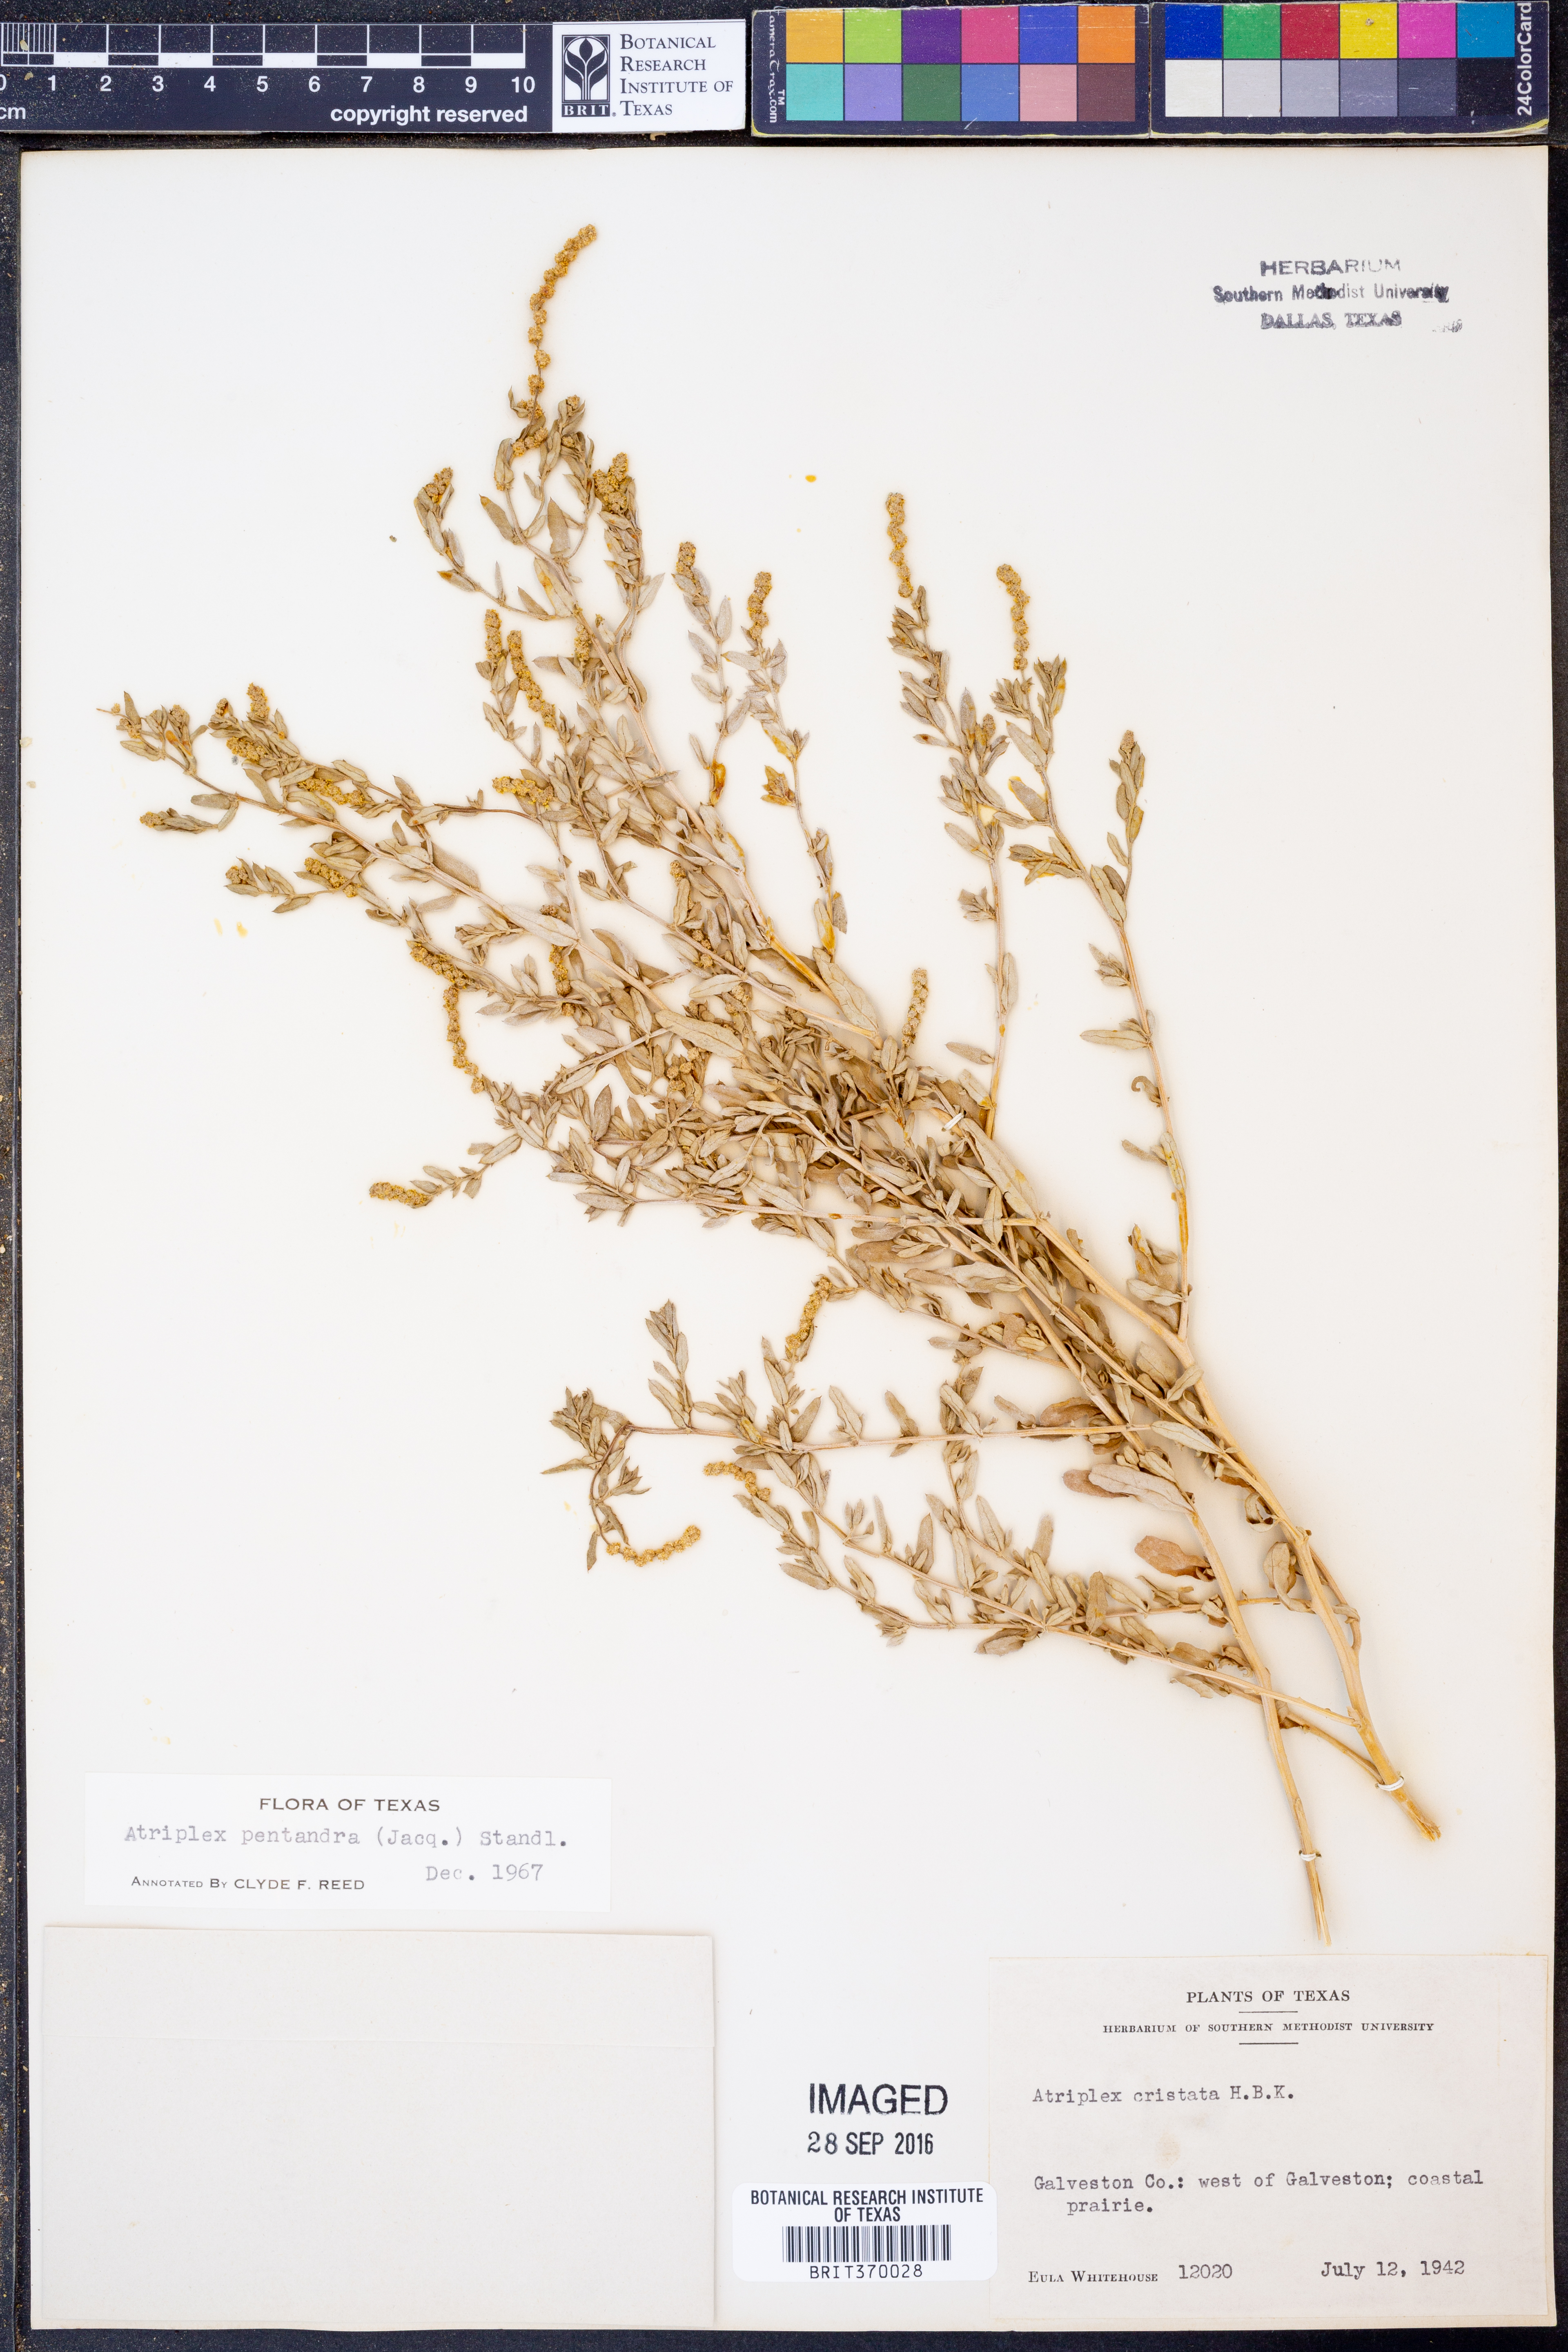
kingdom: Plantae
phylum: Tracheophyta
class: Magnoliopsida
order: Caryophyllales
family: Amaranthaceae
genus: Atriplex
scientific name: Atriplex cristata
